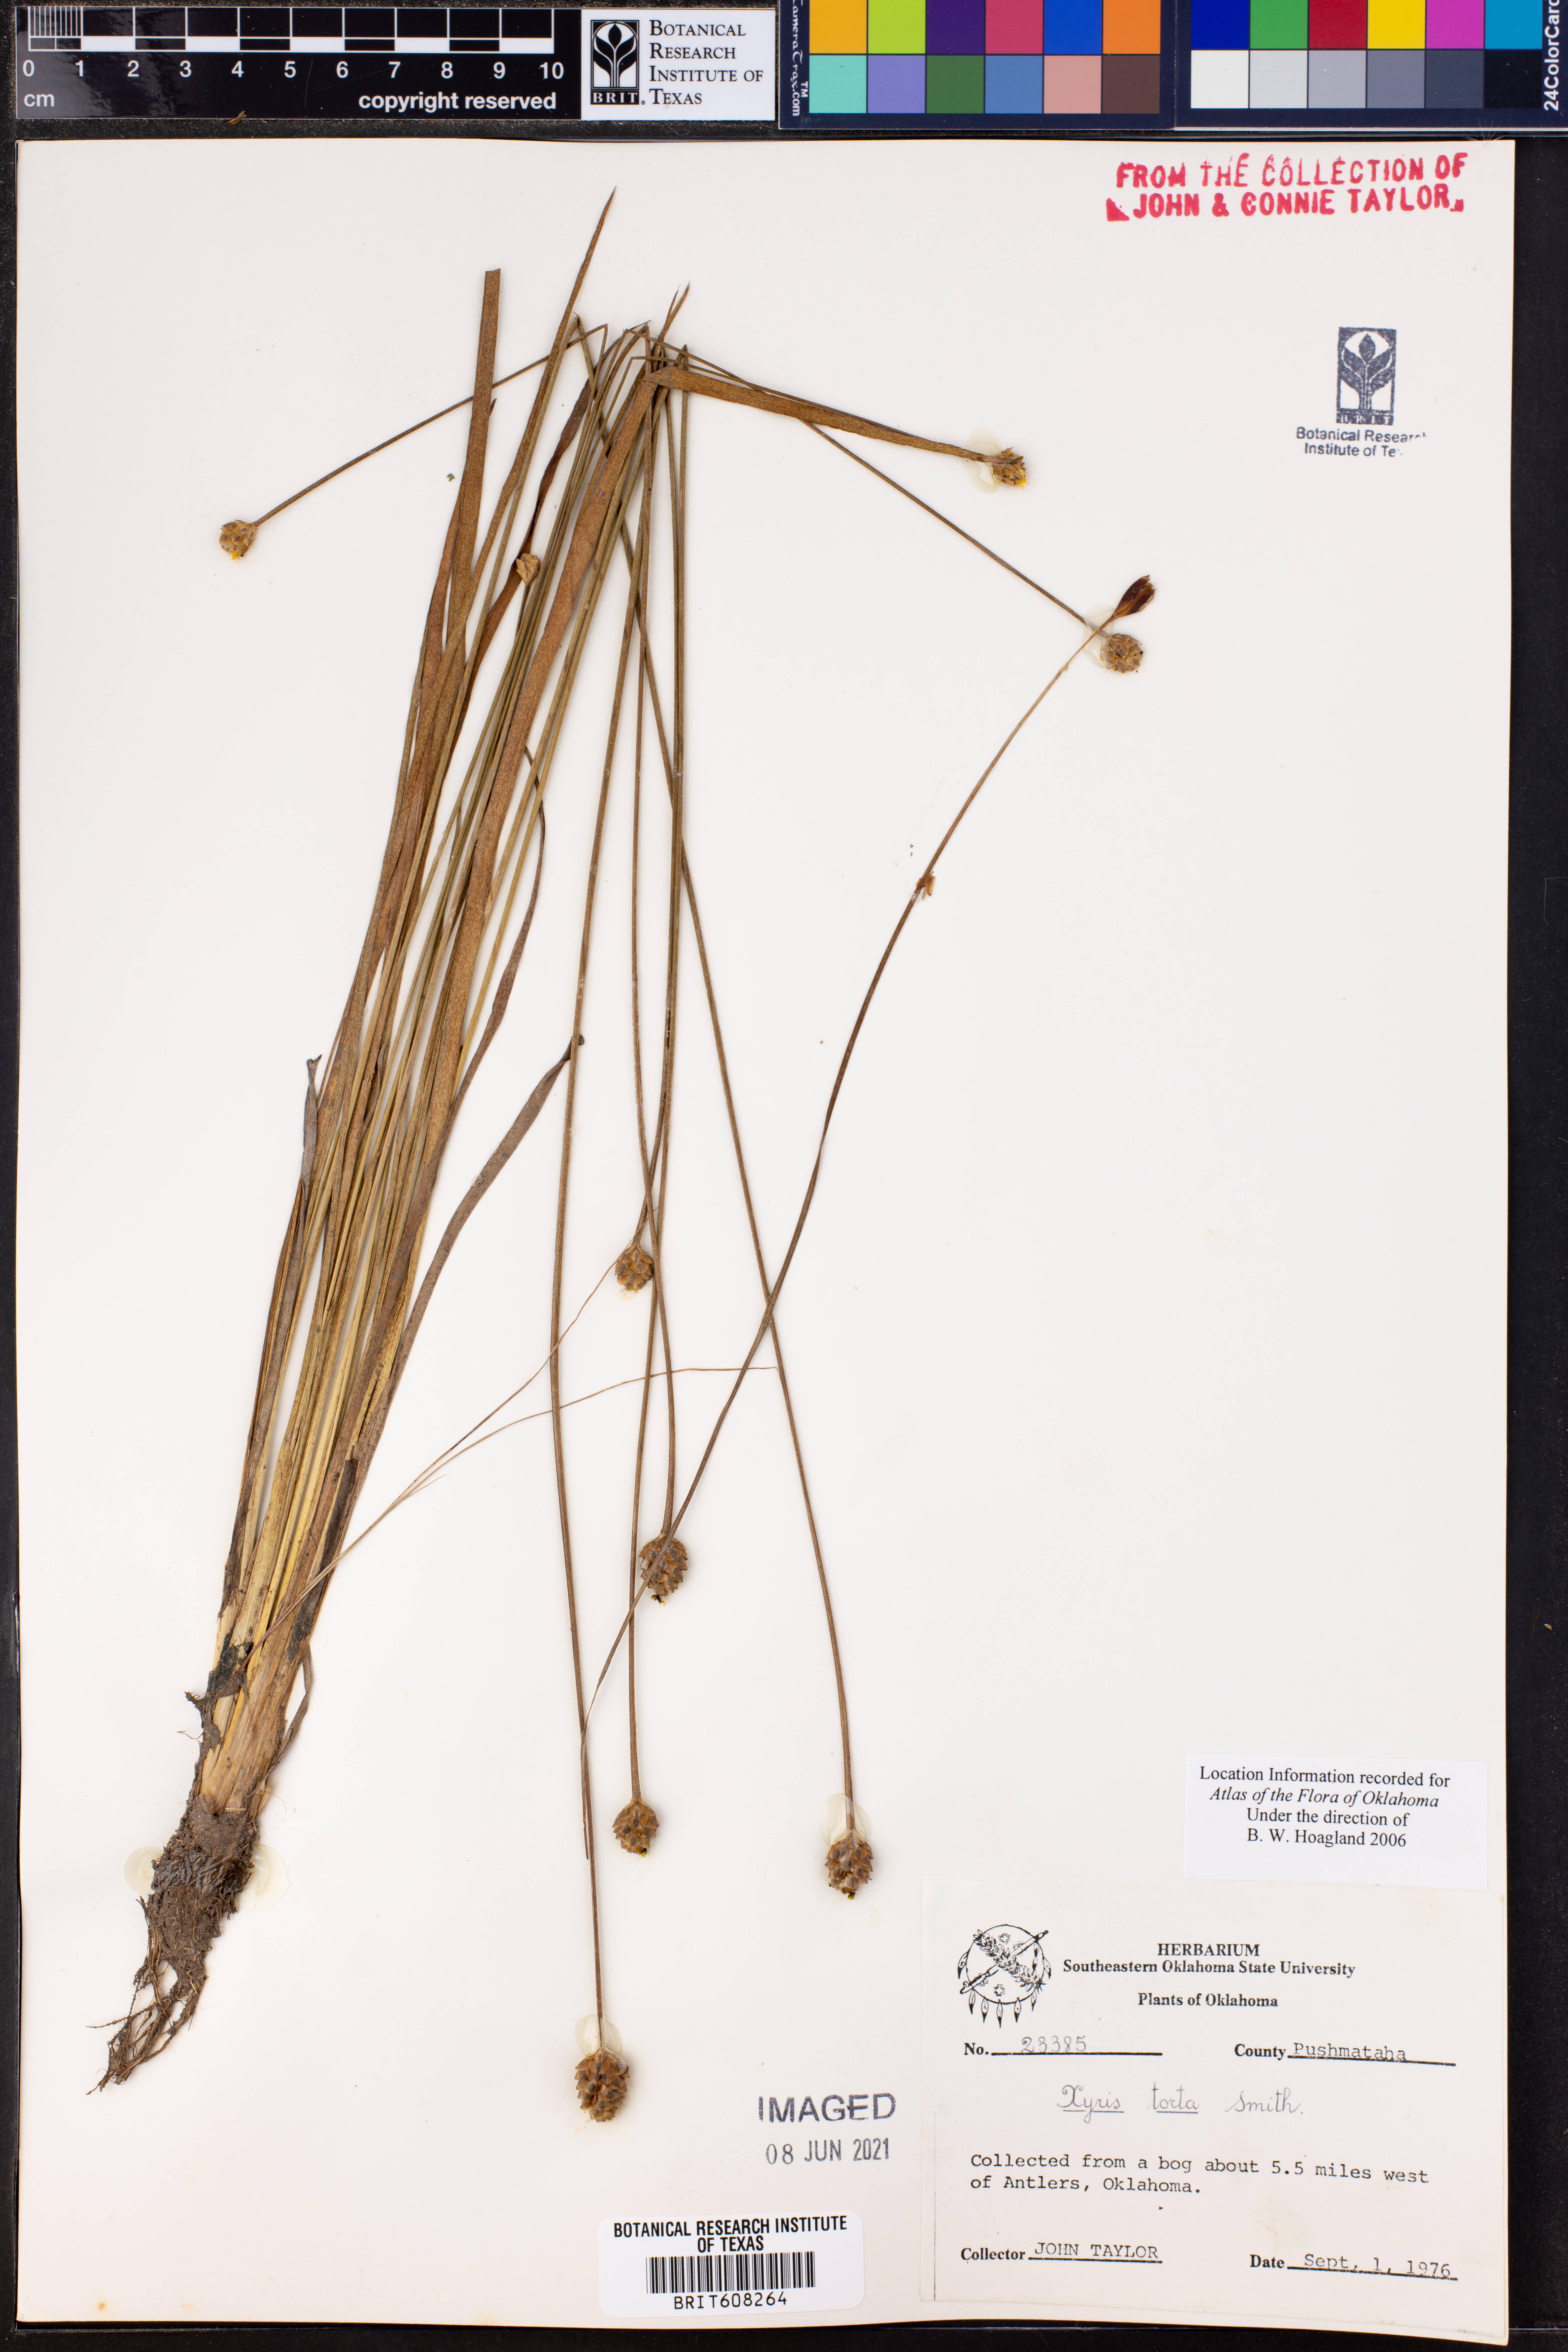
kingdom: Plantae
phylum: Tracheophyta
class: Liliopsida
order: Poales
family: Xyridaceae
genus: Xyris
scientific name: Xyris torta
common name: Common yelloweyed grass
